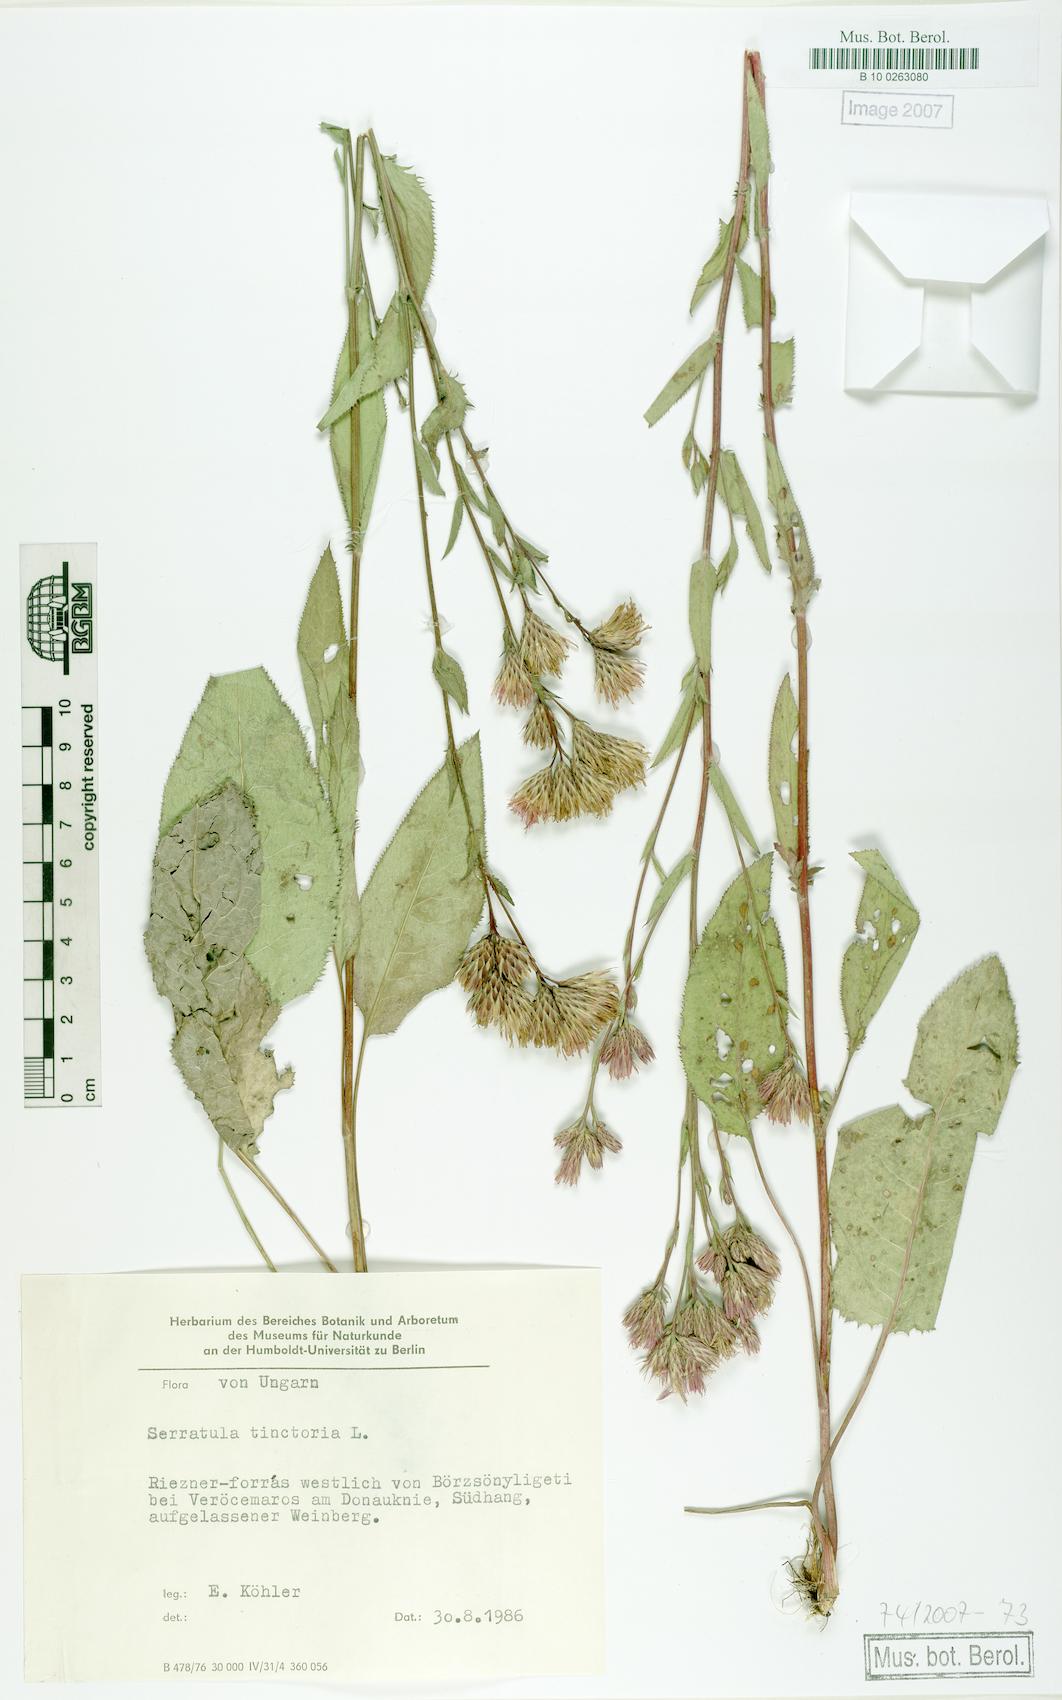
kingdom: Plantae
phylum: Tracheophyta
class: Magnoliopsida
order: Asterales
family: Asteraceae
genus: Serratula
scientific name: Serratula tinctoria
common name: Saw-wort
